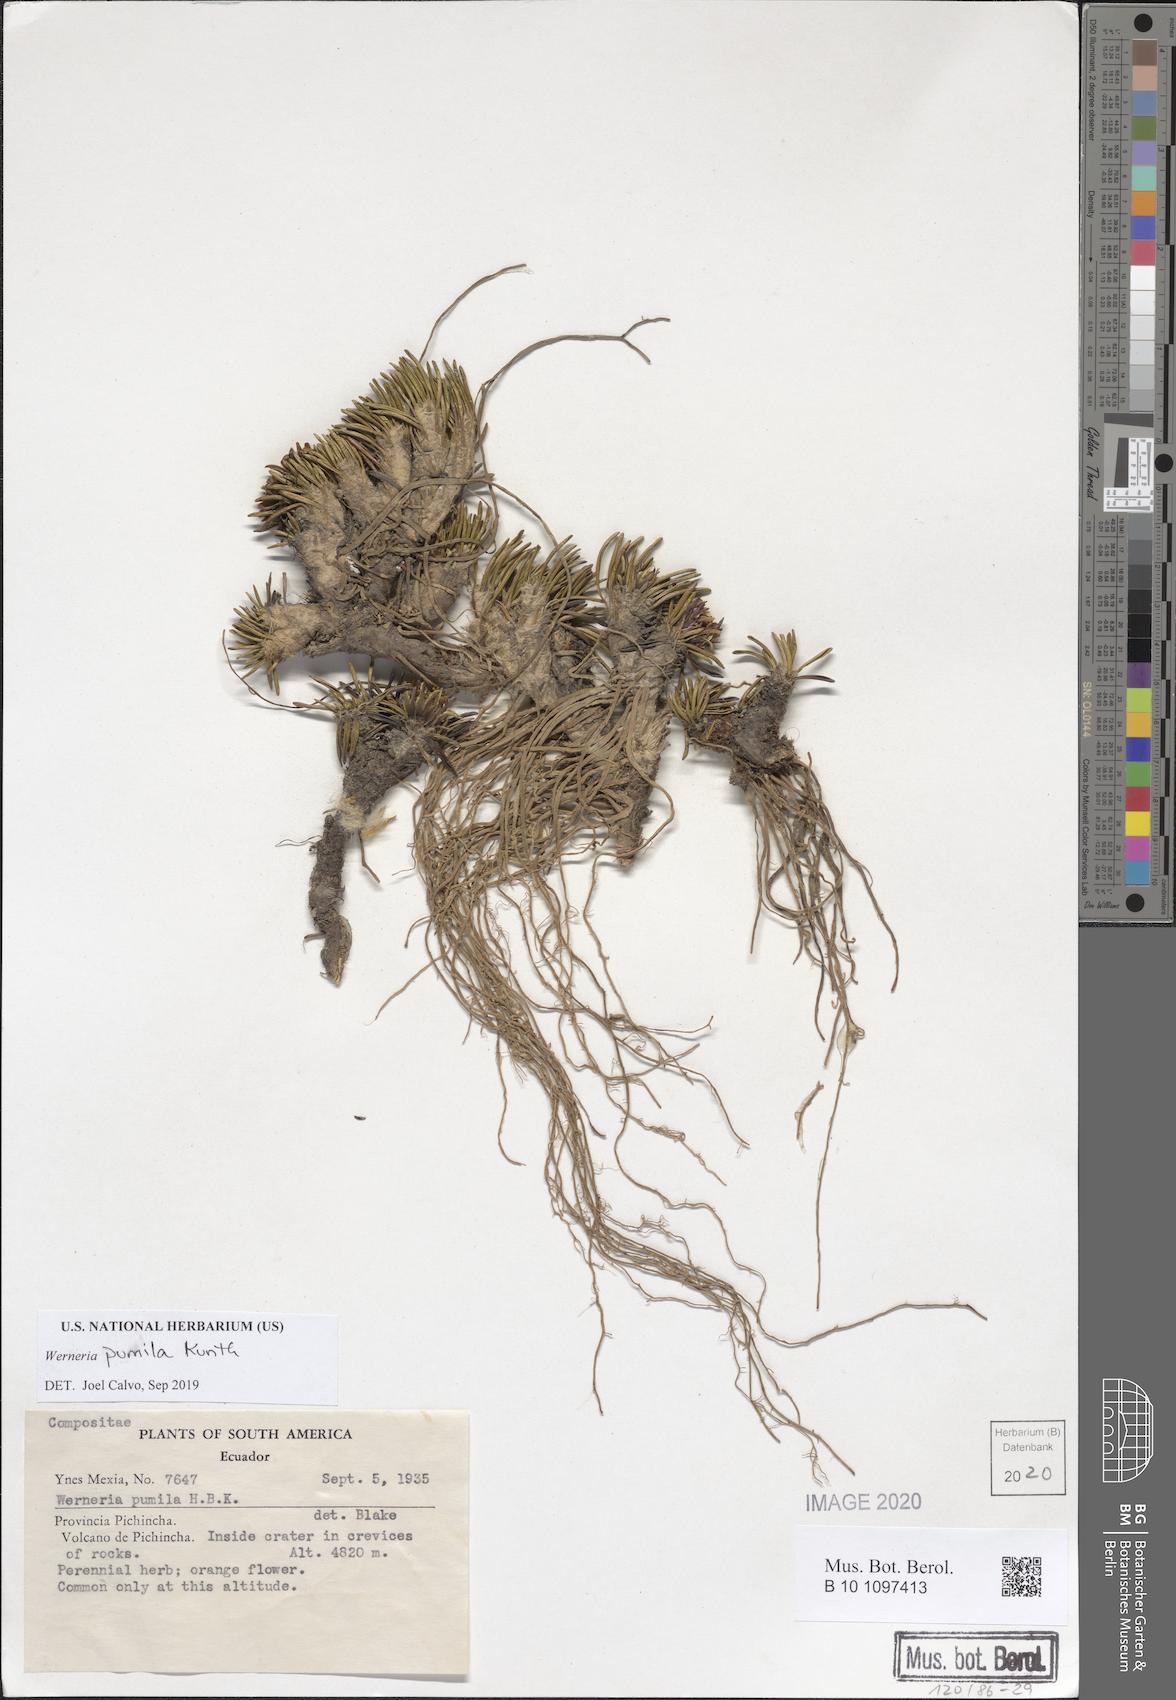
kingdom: Plantae
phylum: Tracheophyta
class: Magnoliopsida
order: Asterales
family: Asteraceae
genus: Rockhausenia
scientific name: Rockhausenia pumila
